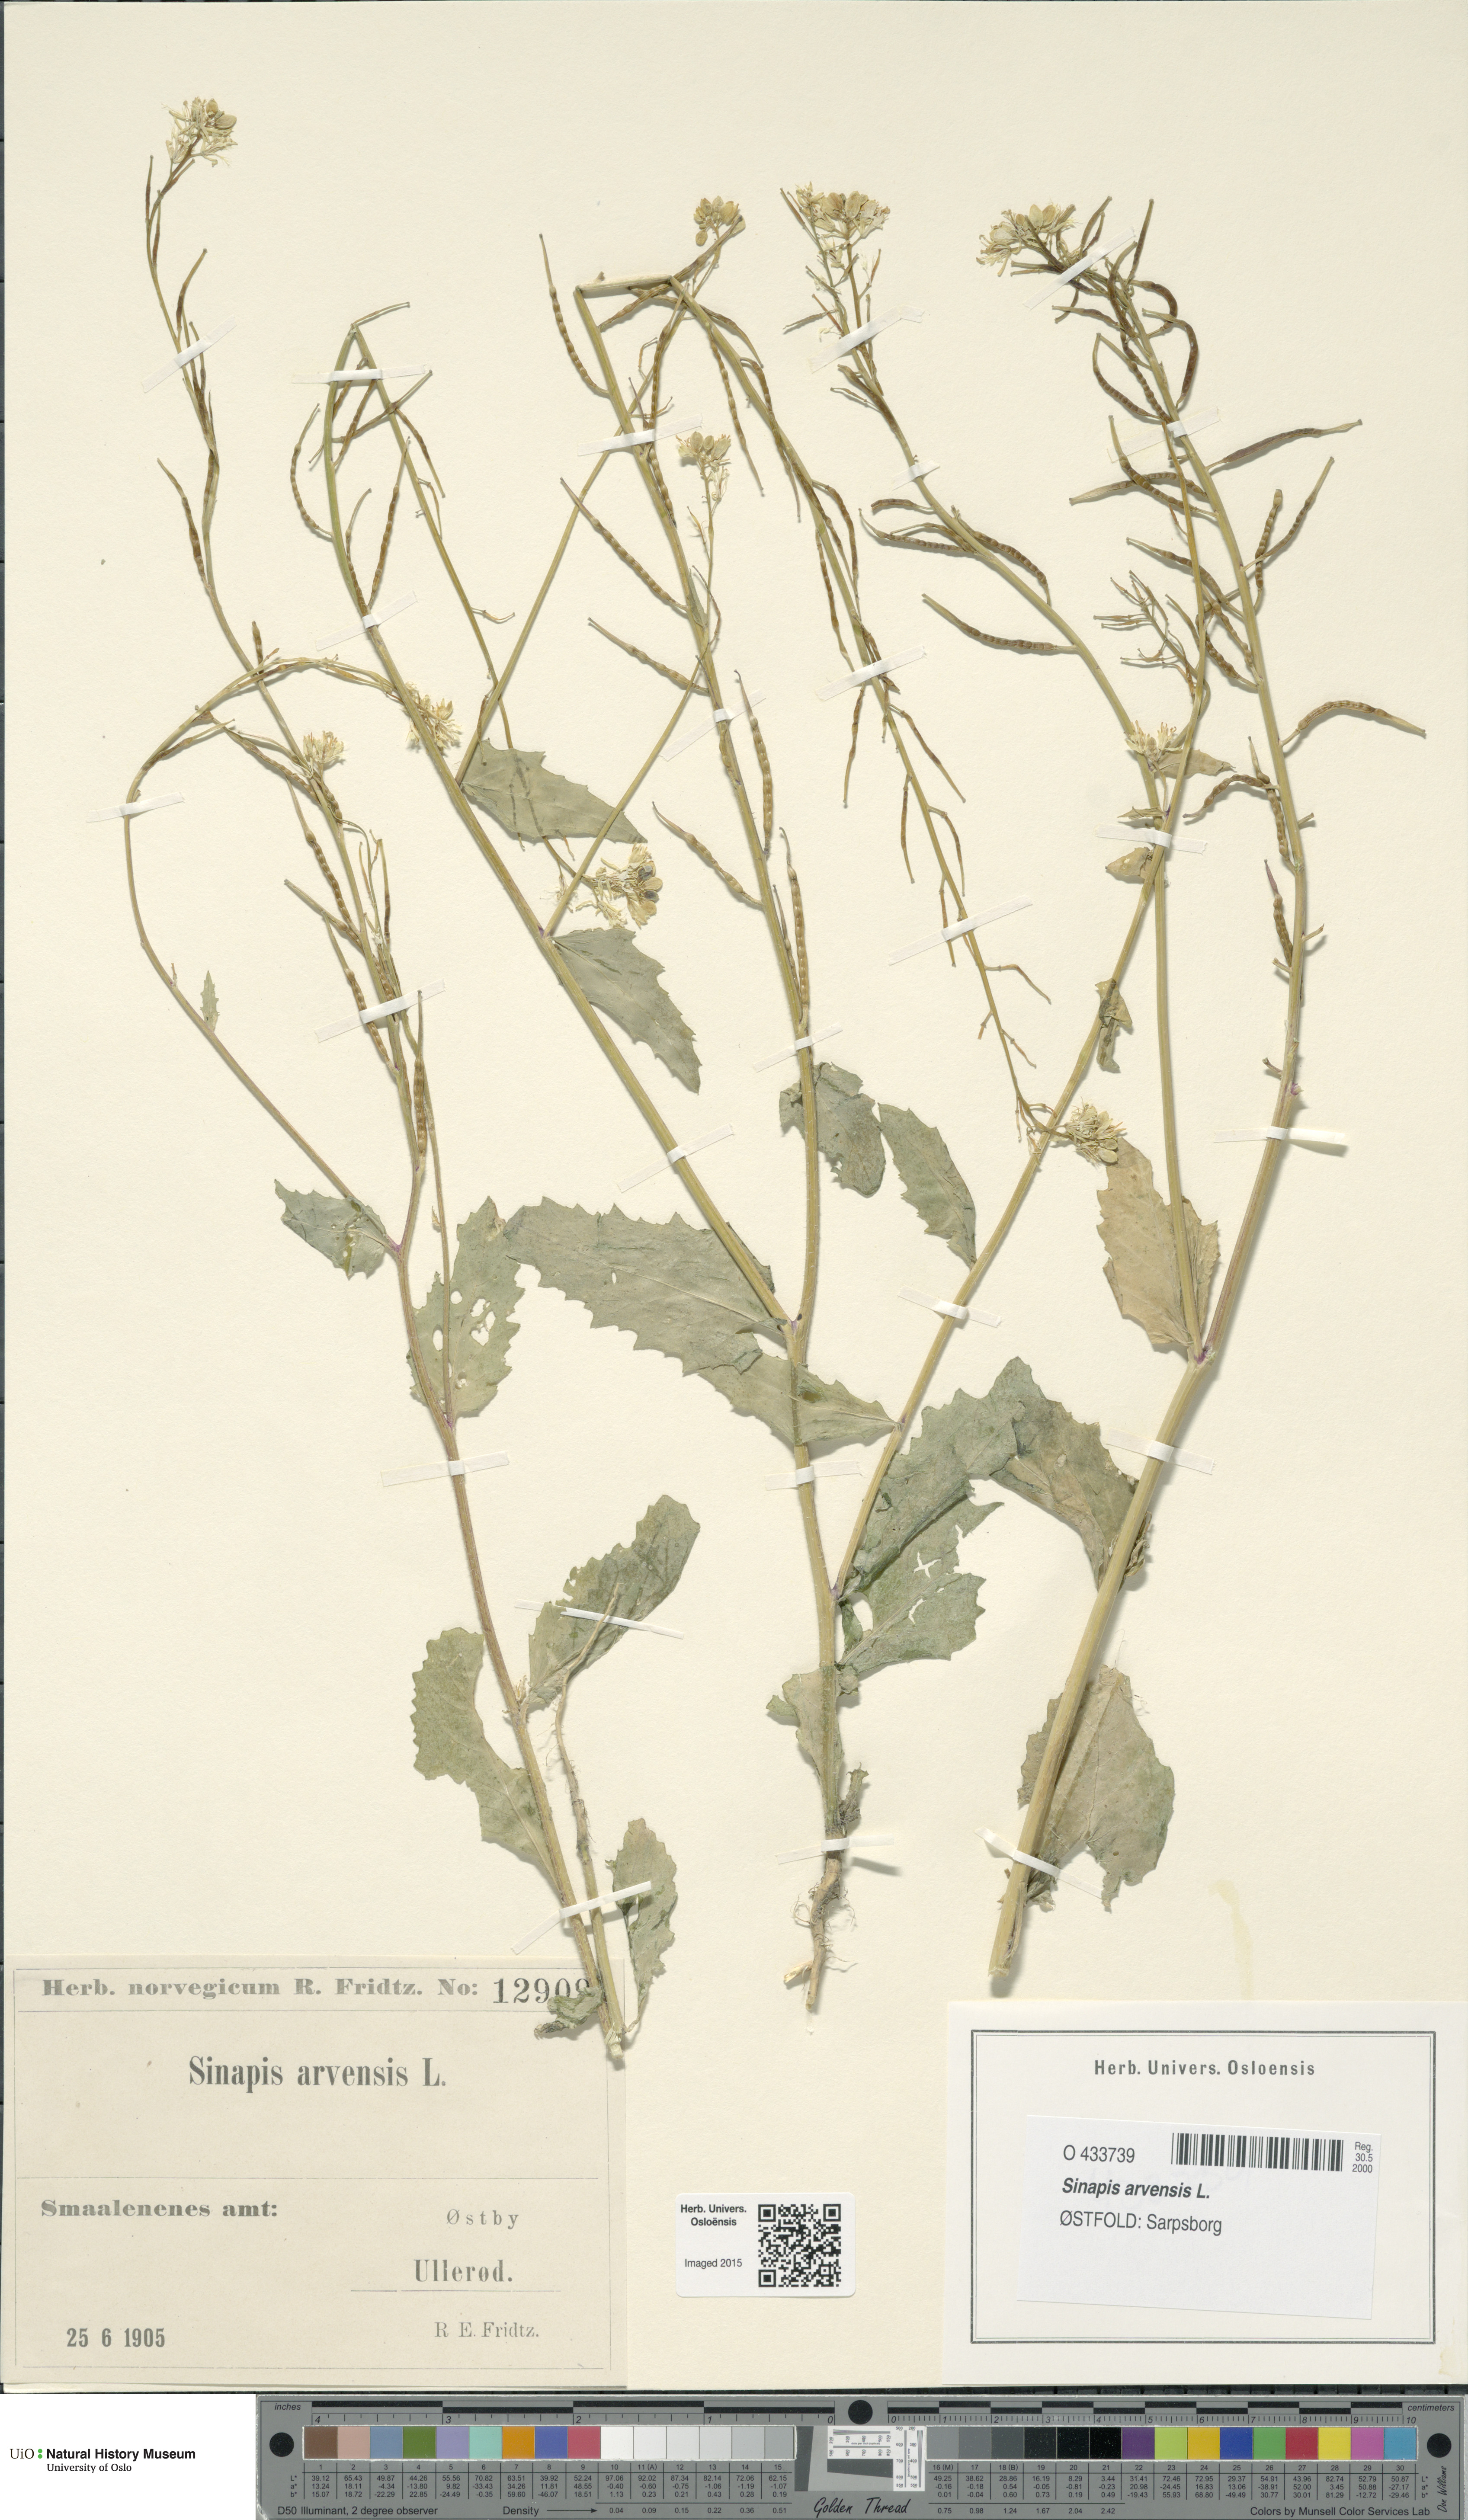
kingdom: Plantae
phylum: Tracheophyta
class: Magnoliopsida
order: Brassicales
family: Brassicaceae
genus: Sinapis
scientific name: Sinapis arvensis
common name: Charlock
